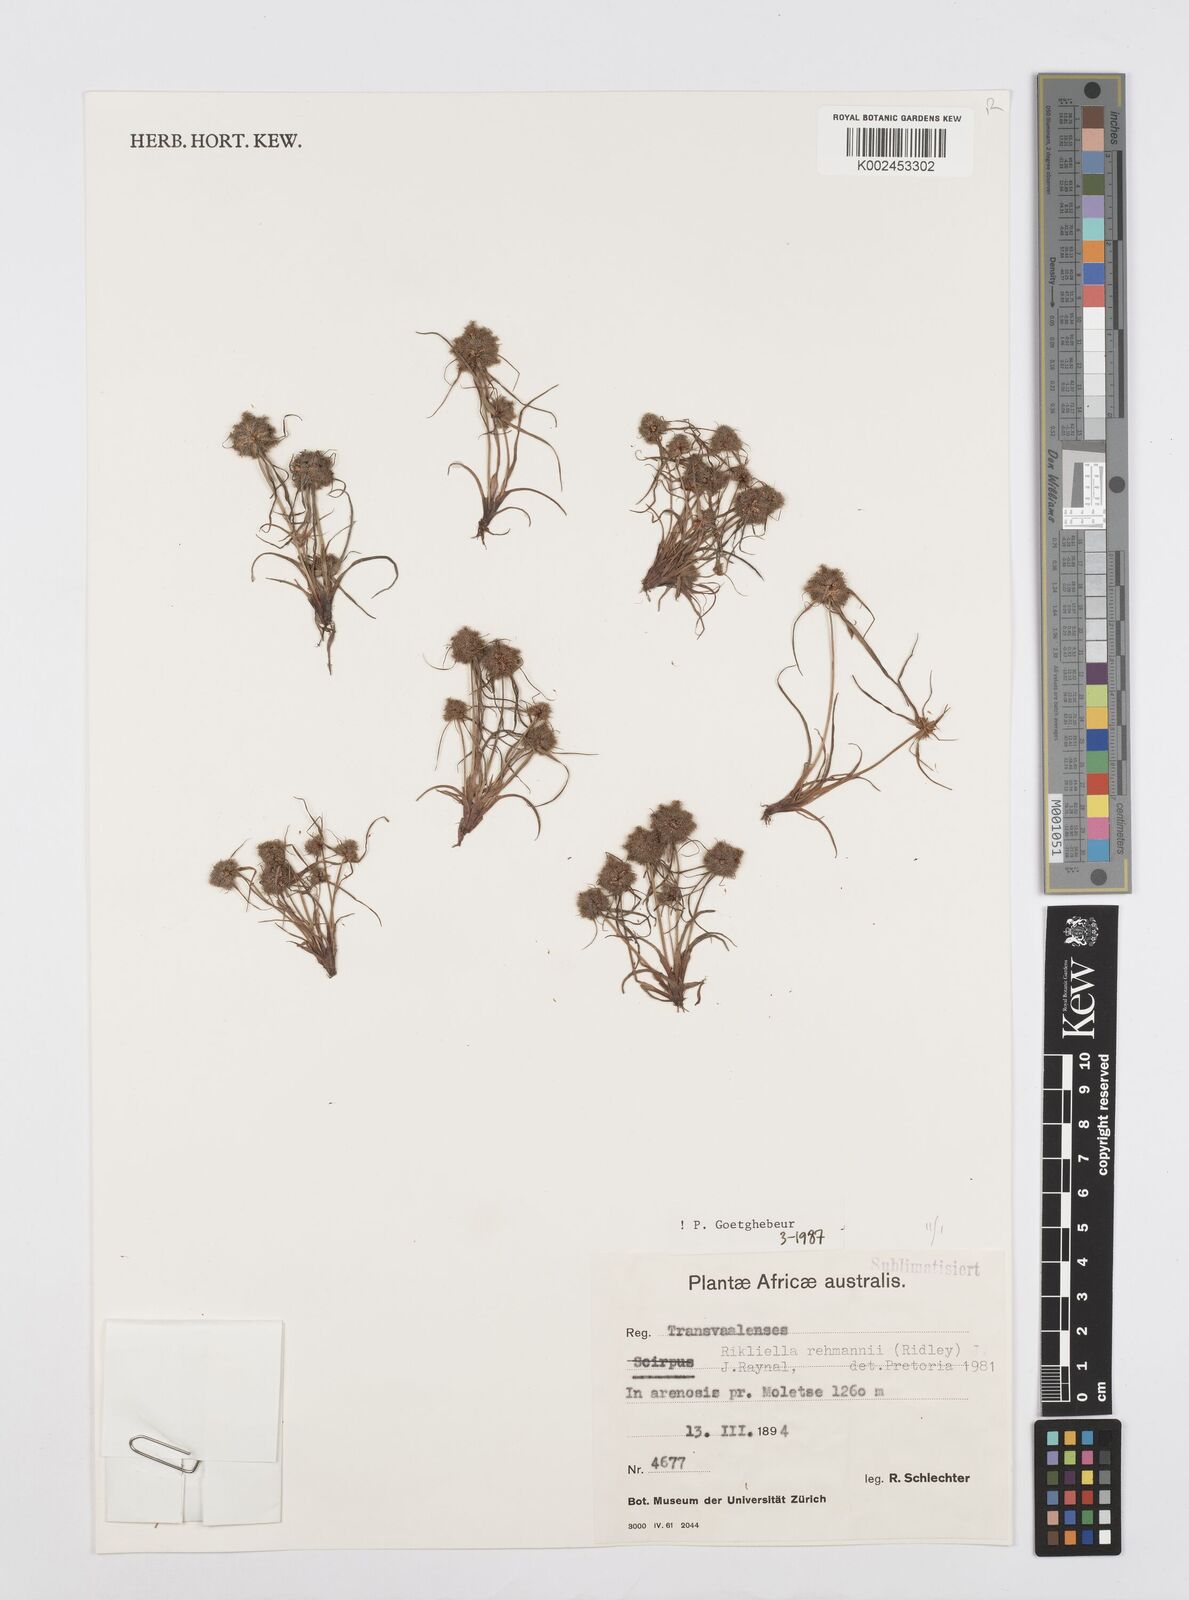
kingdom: Plantae
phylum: Tracheophyta
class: Liliopsida
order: Poales
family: Cyperaceae
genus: Cyperus
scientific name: Cyperus sanguinolentus
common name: Purpleglume flatsedge
